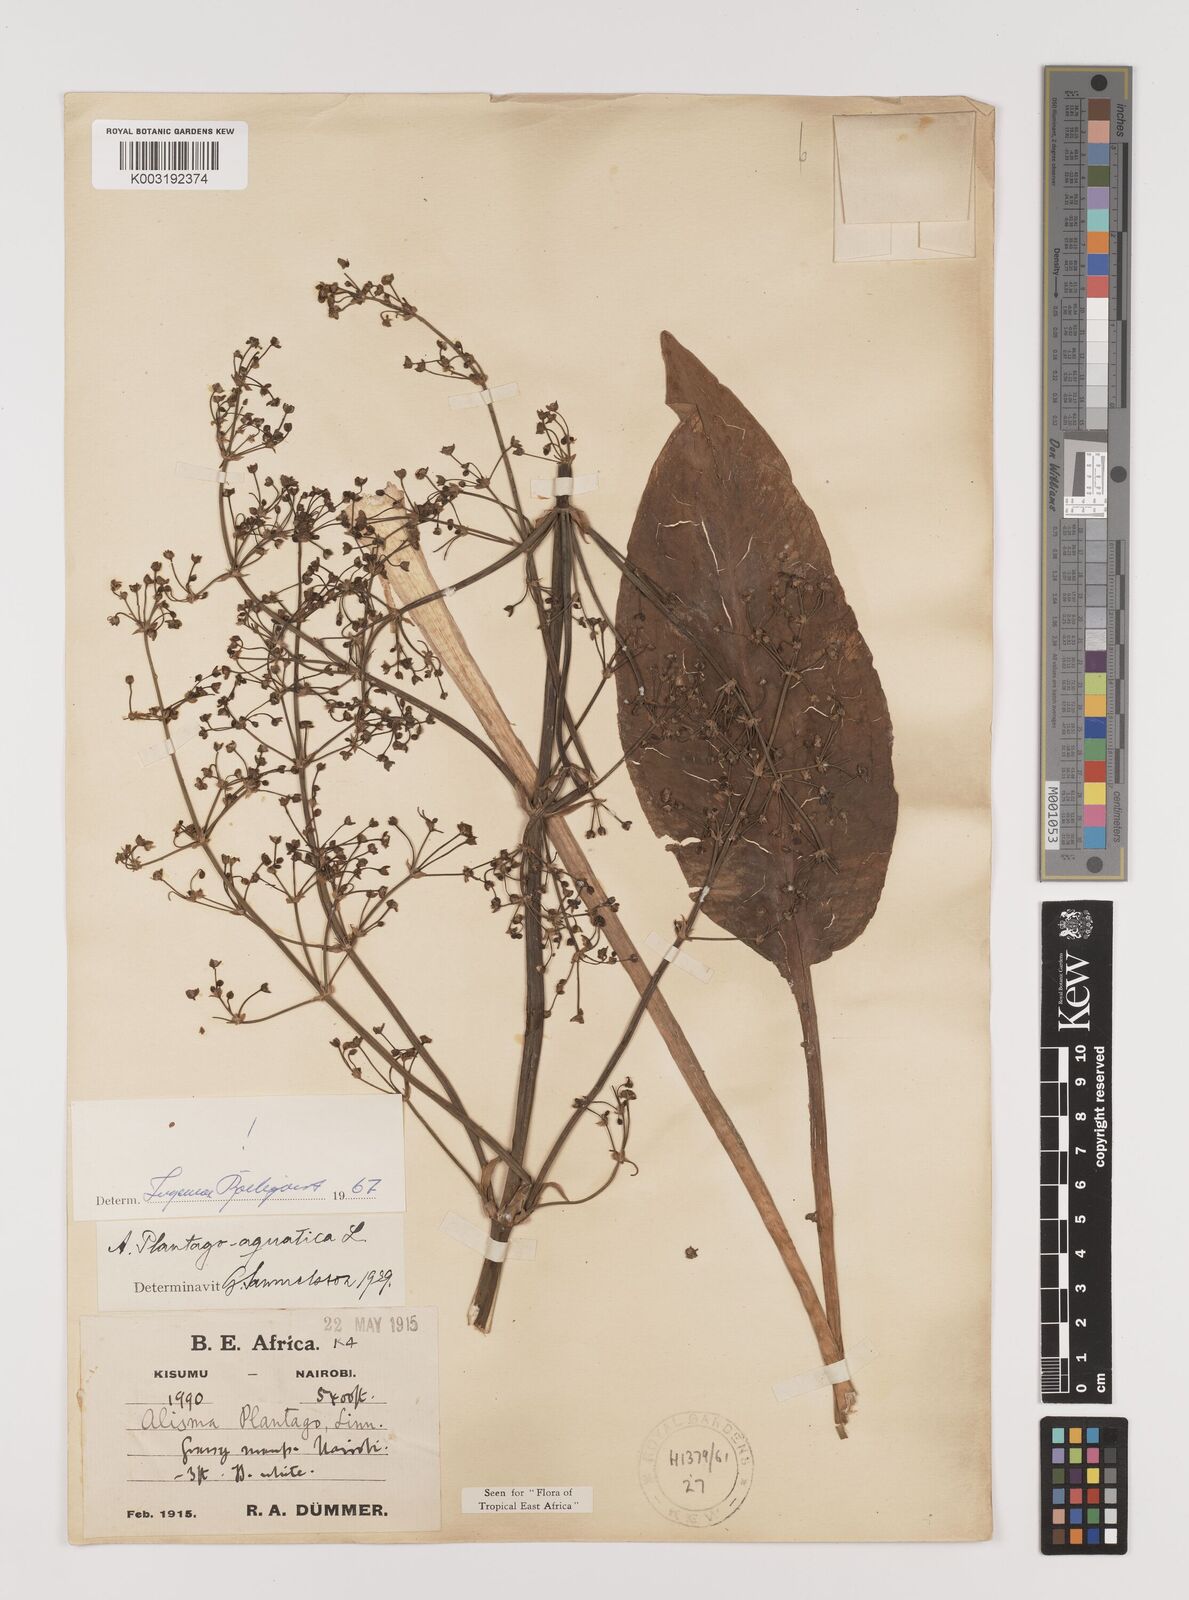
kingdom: Plantae
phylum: Tracheophyta
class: Liliopsida
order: Alismatales
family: Alismataceae
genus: Alisma
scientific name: Alisma plantago-aquatica
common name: Water-plantain
